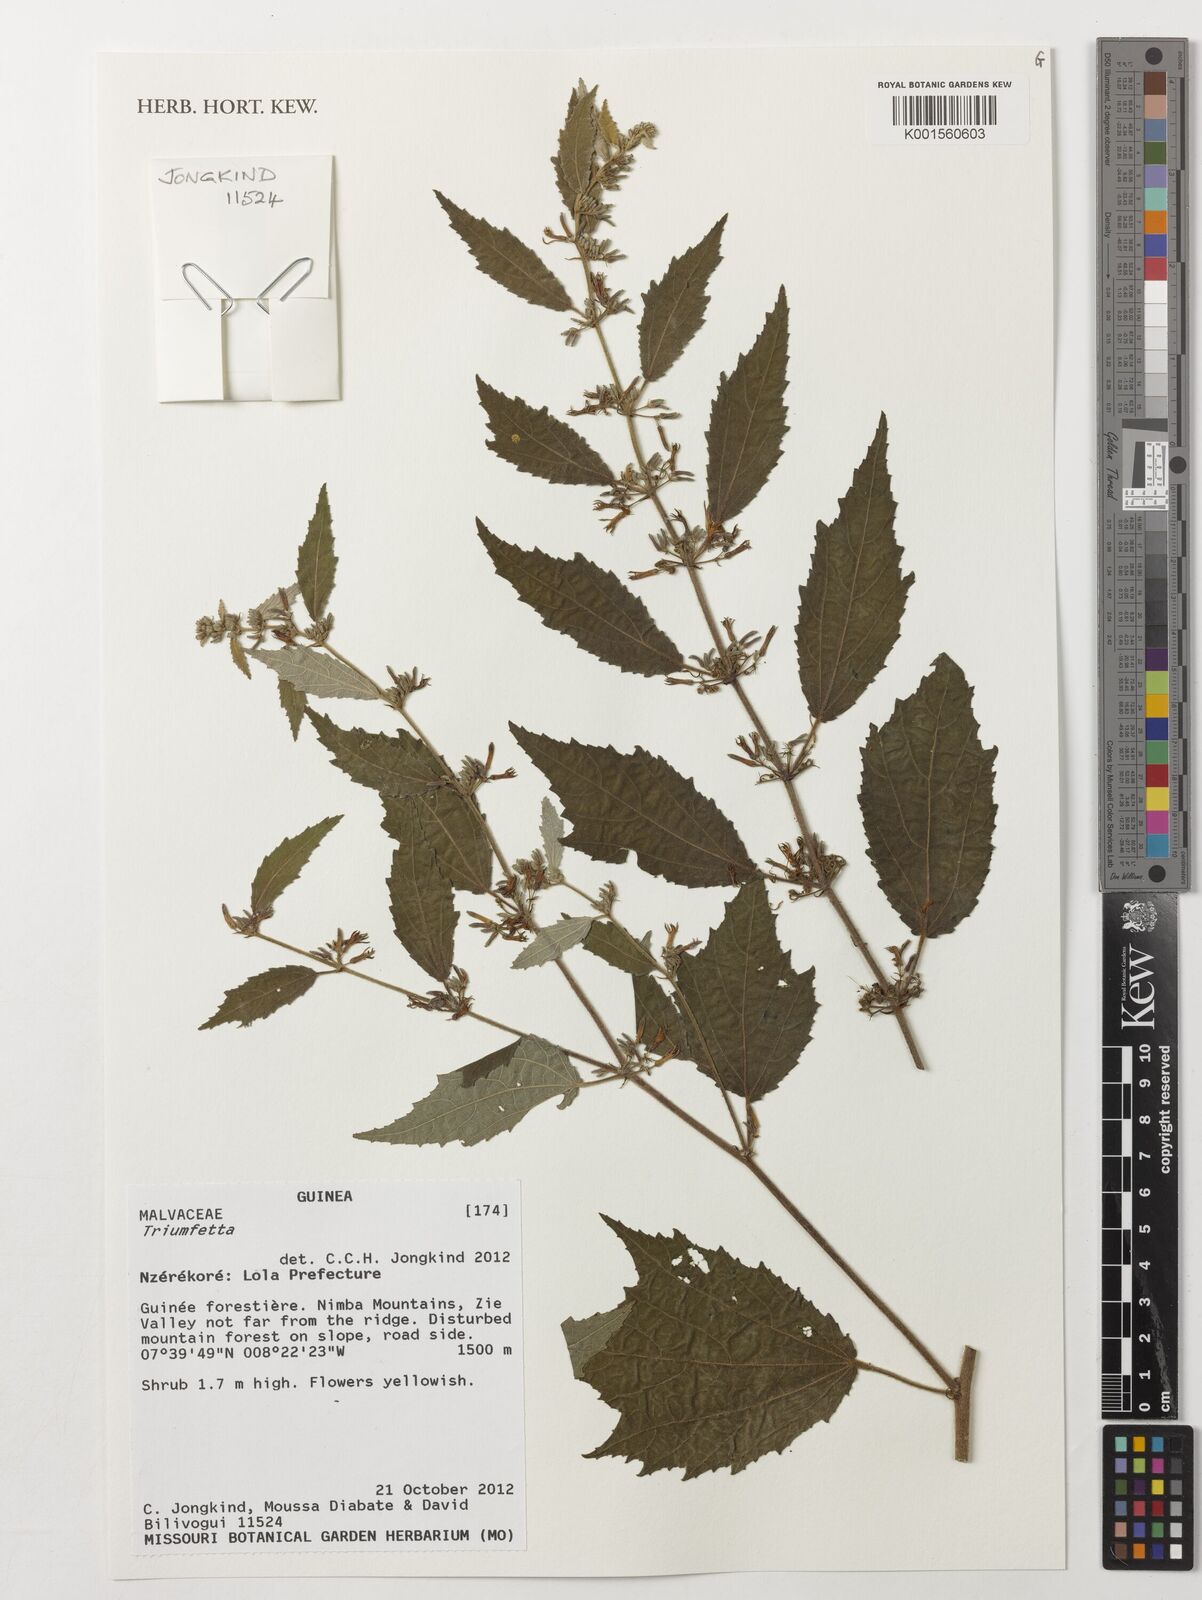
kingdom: Plantae
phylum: Tracheophyta
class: Magnoliopsida
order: Malvales
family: Malvaceae
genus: Triumfetta
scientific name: Triumfetta
